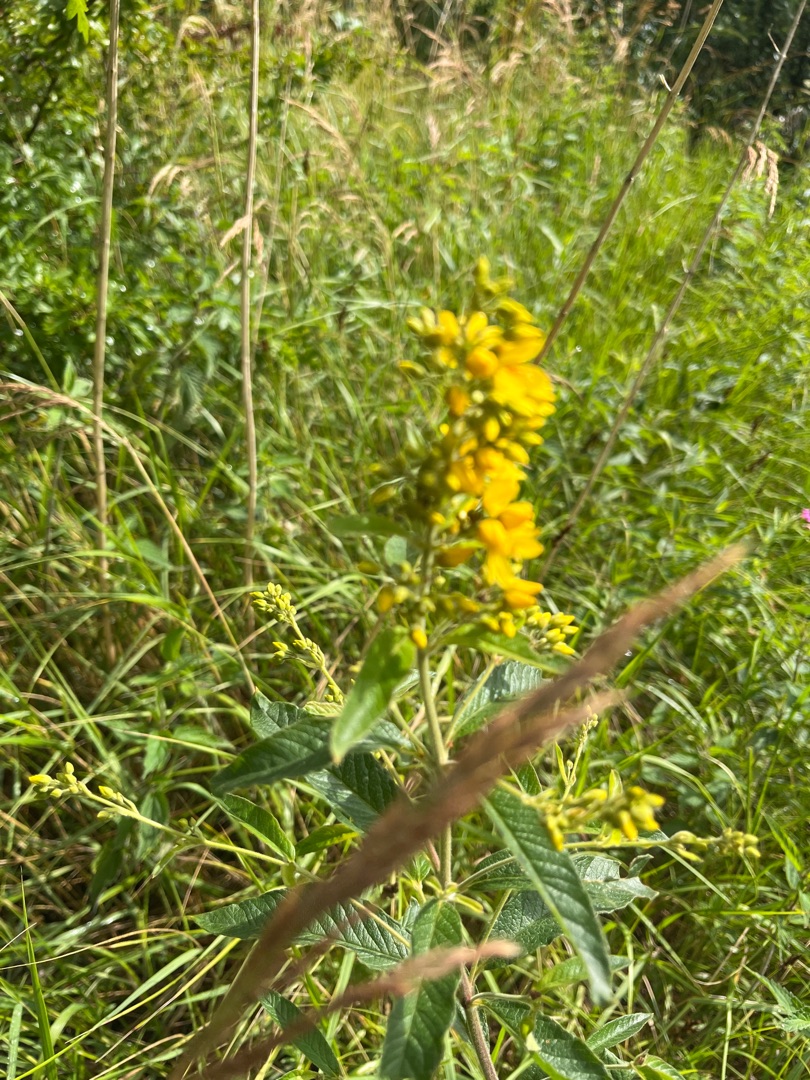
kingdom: Plantae
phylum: Tracheophyta
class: Magnoliopsida
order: Ericales
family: Primulaceae
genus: Lysimachia
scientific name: Lysimachia vulgaris
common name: Almindelig fredløs
